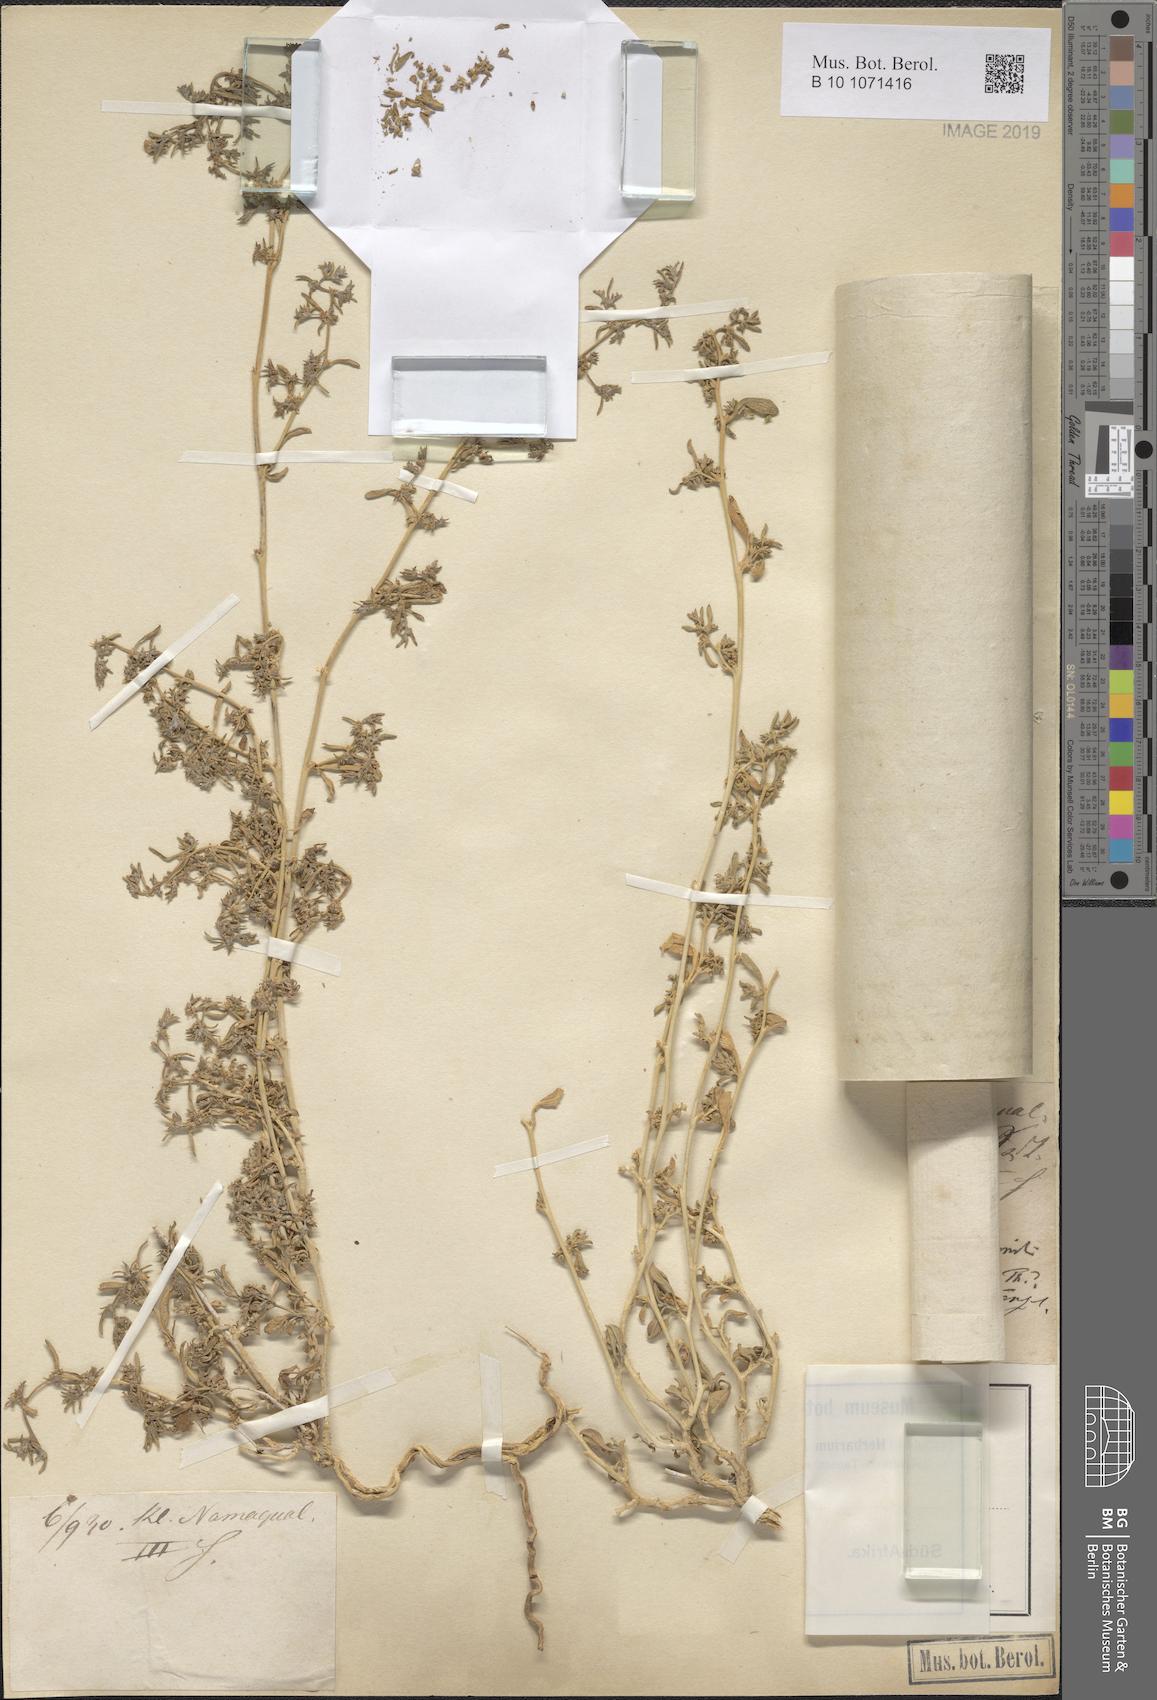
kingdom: Plantae
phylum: Tracheophyta
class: Magnoliopsida
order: Caryophyllales
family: Aizoaceae
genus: Aizoon
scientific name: Aizoon collinum
